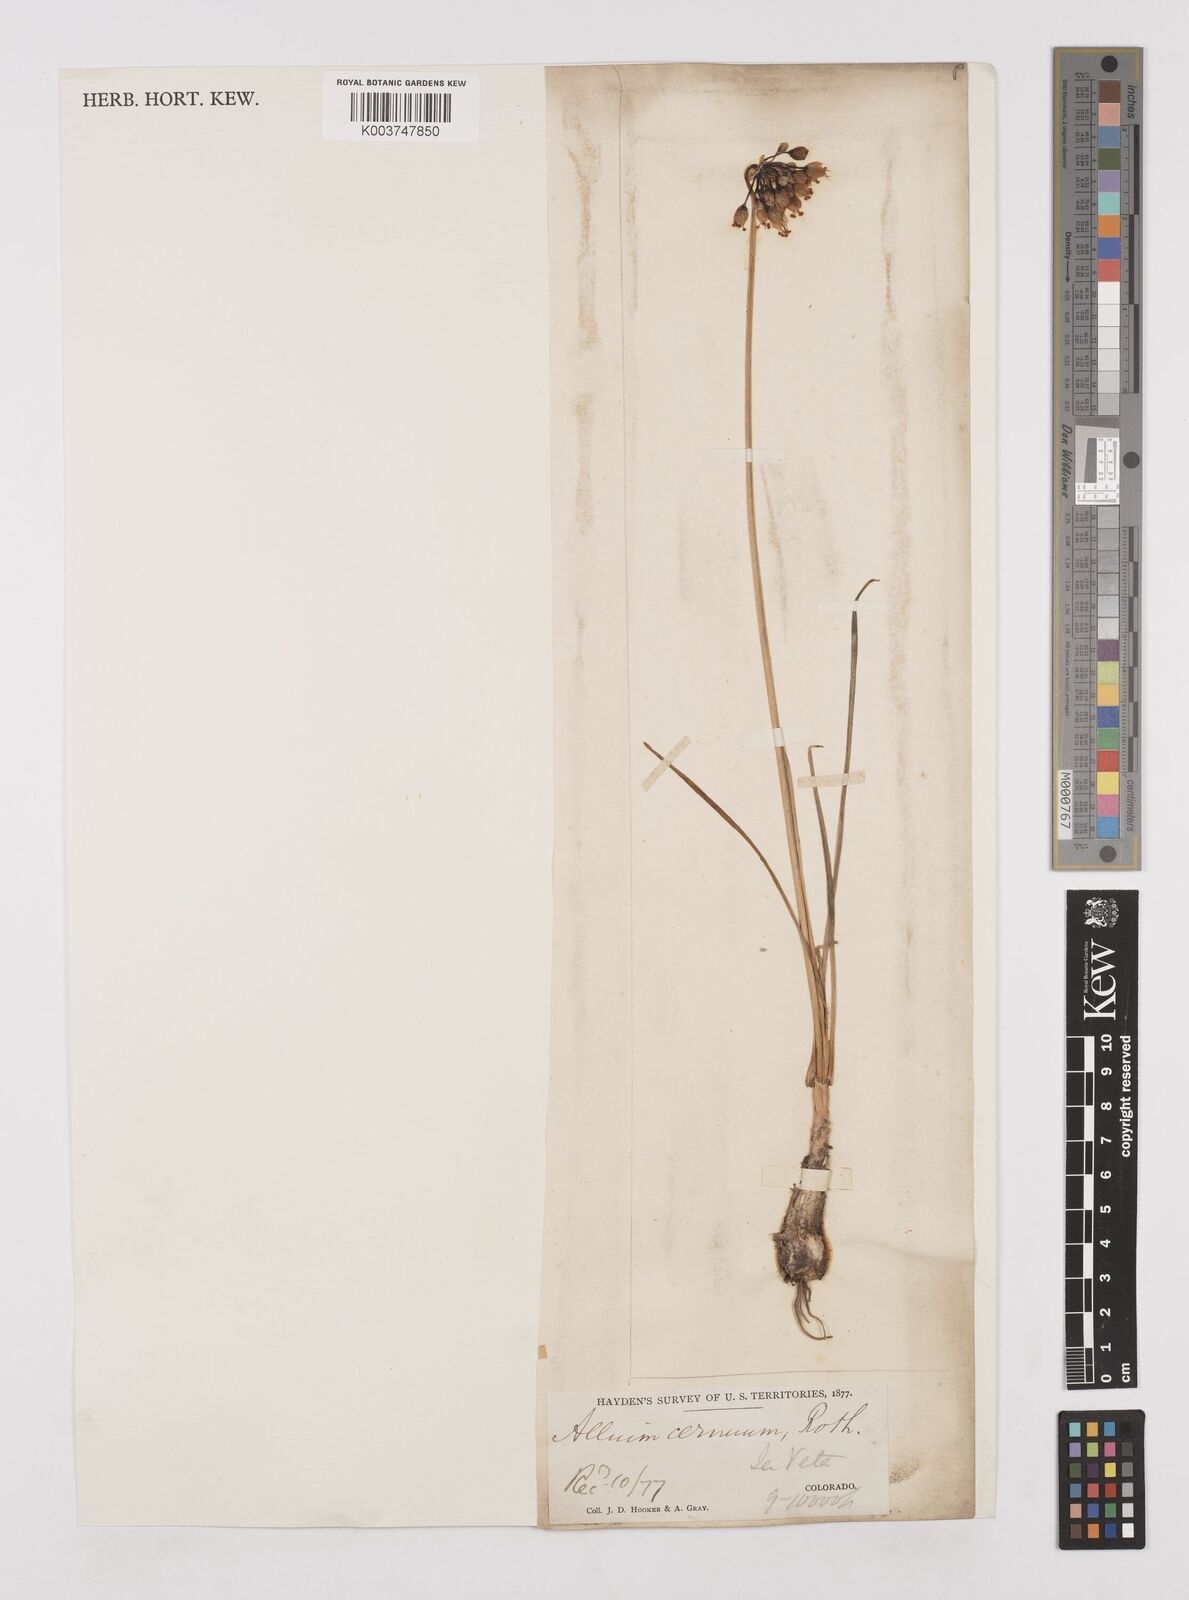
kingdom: Plantae
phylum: Tracheophyta
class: Liliopsida
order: Asparagales
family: Amaryllidaceae
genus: Allium
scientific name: Allium cernuum
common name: Nodding onion
